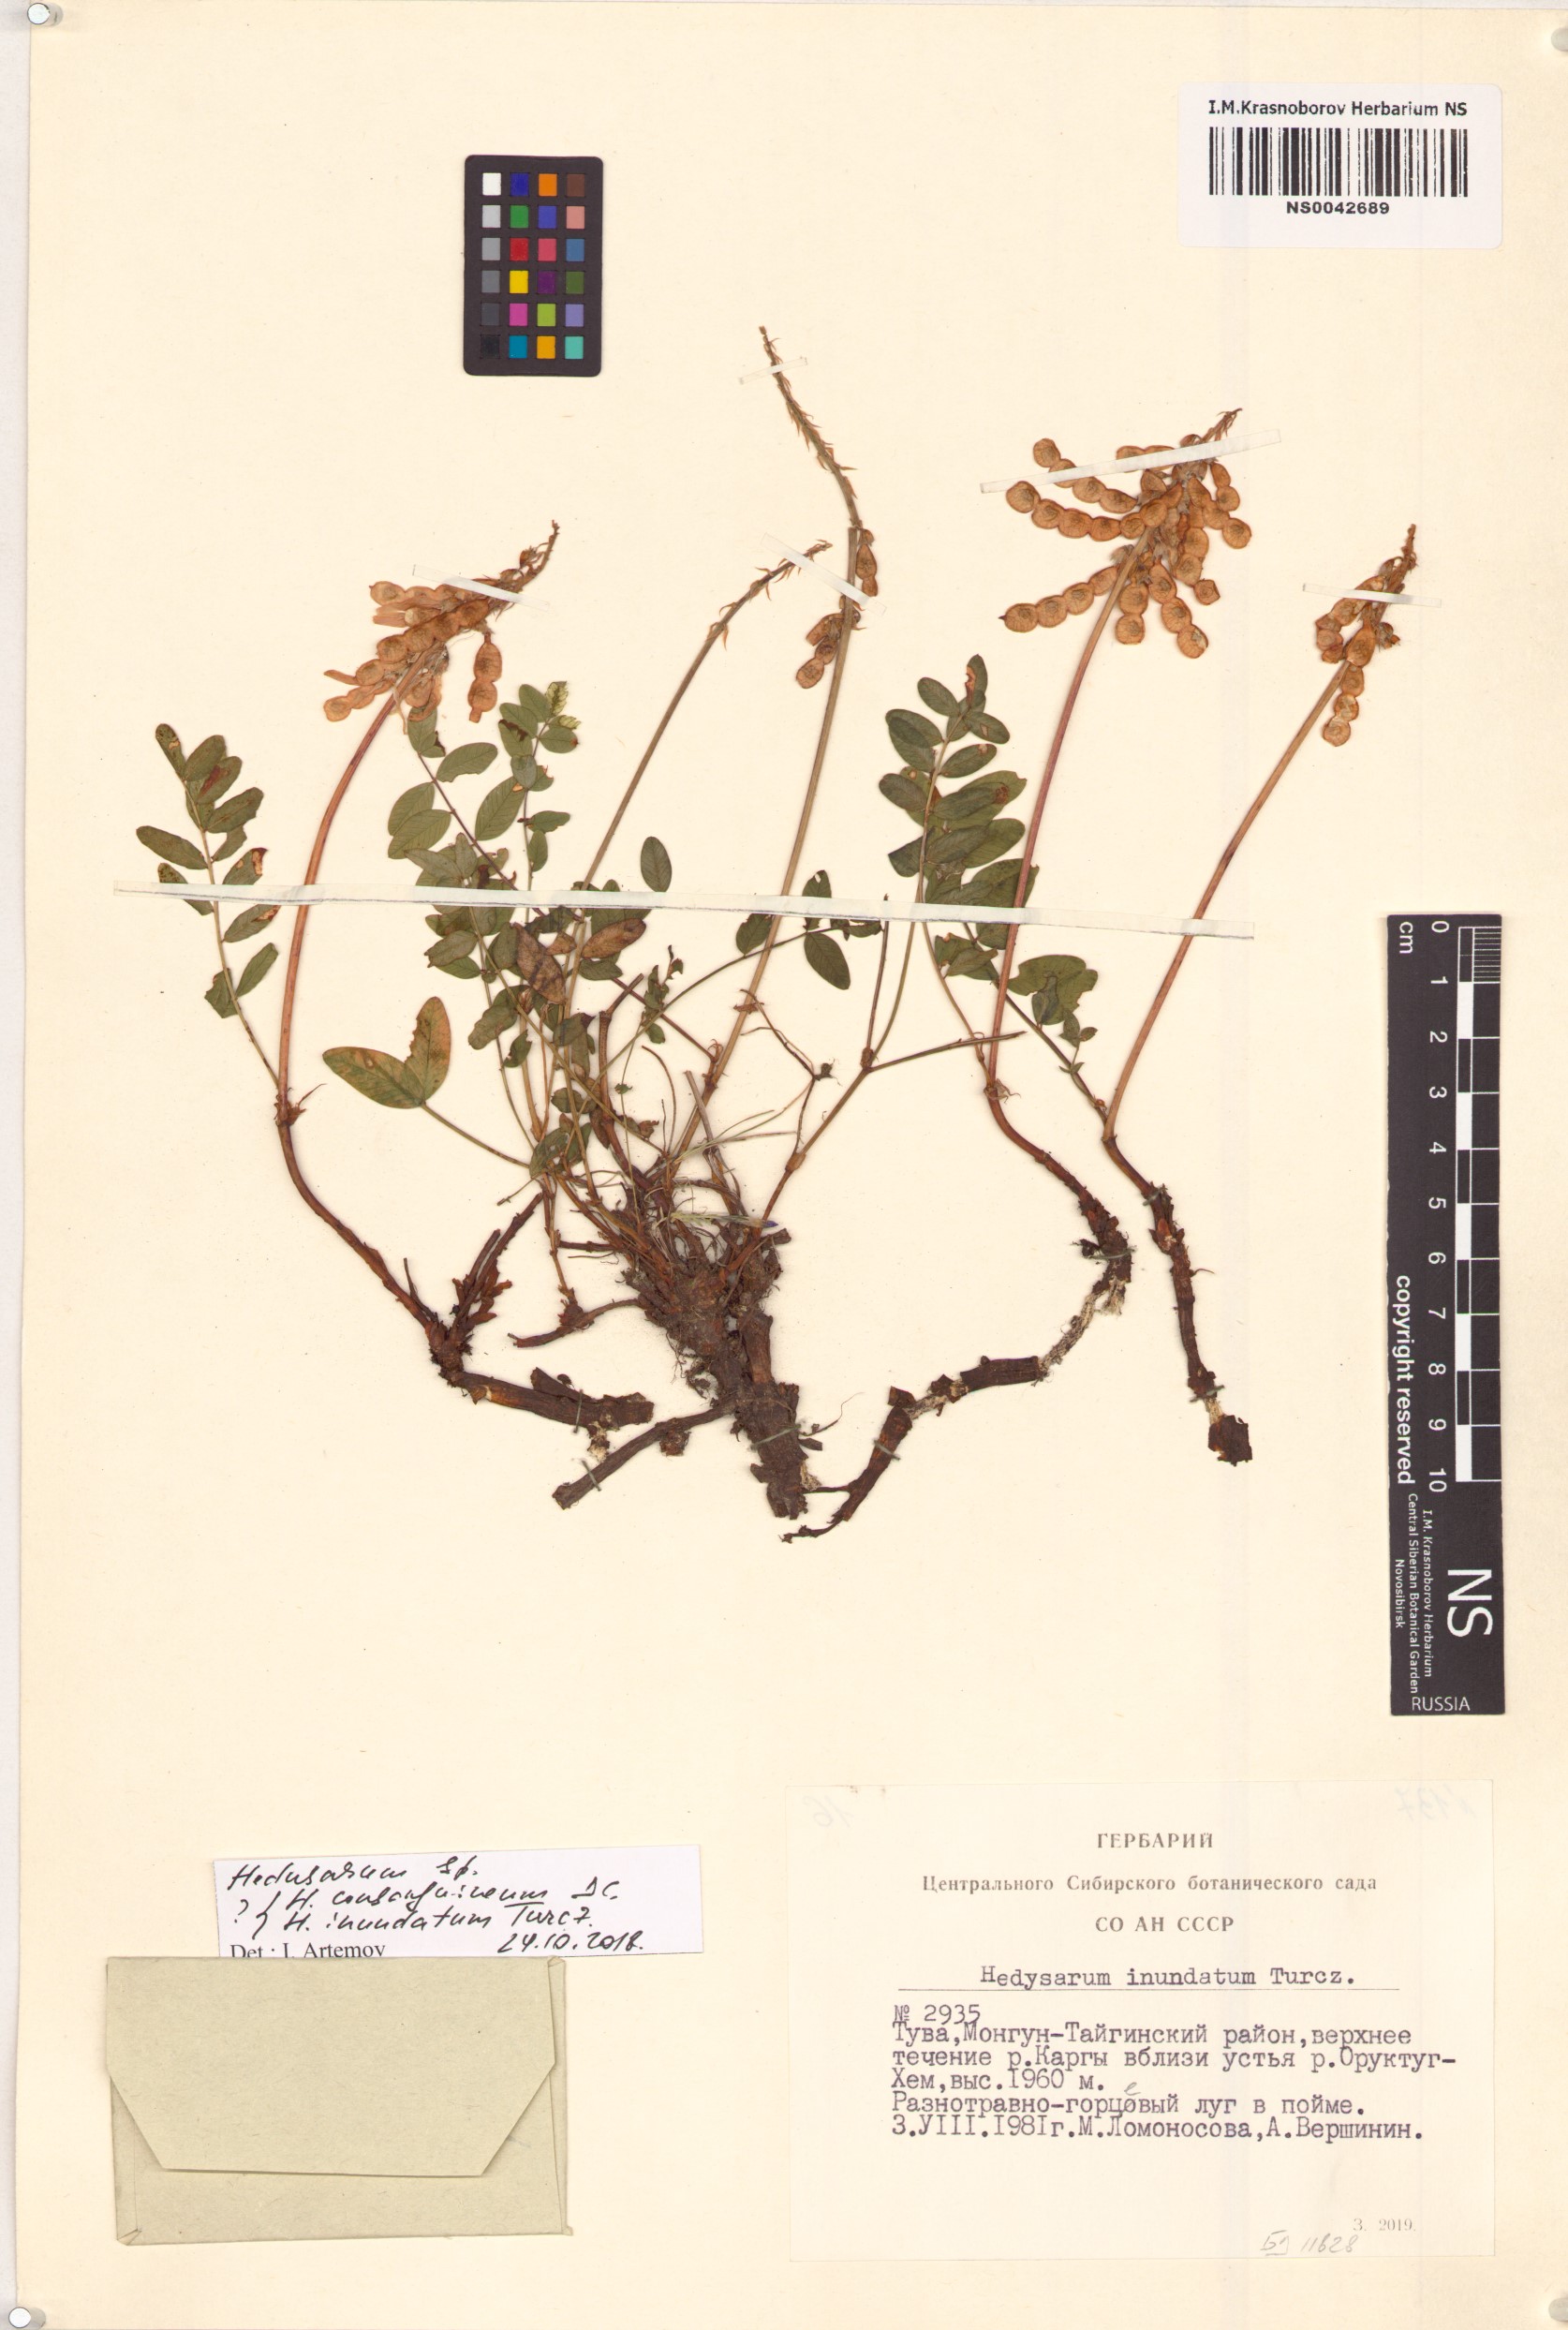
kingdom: Plantae
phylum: Tracheophyta
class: Magnoliopsida
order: Fabales
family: Fabaceae
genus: Hedysarum
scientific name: Hedysarum inundatum
